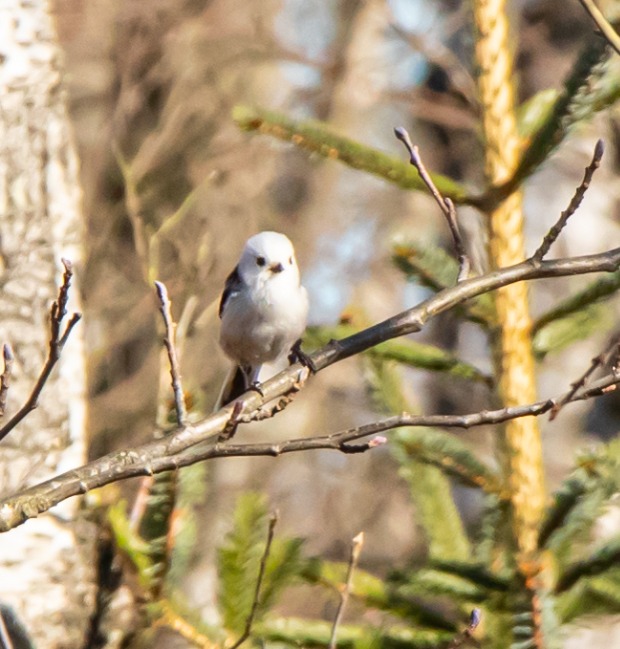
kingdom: Animalia
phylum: Chordata
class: Aves
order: Passeriformes
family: Aegithalidae
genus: Aegithalos
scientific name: Aegithalos caudatus
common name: Halemejse
